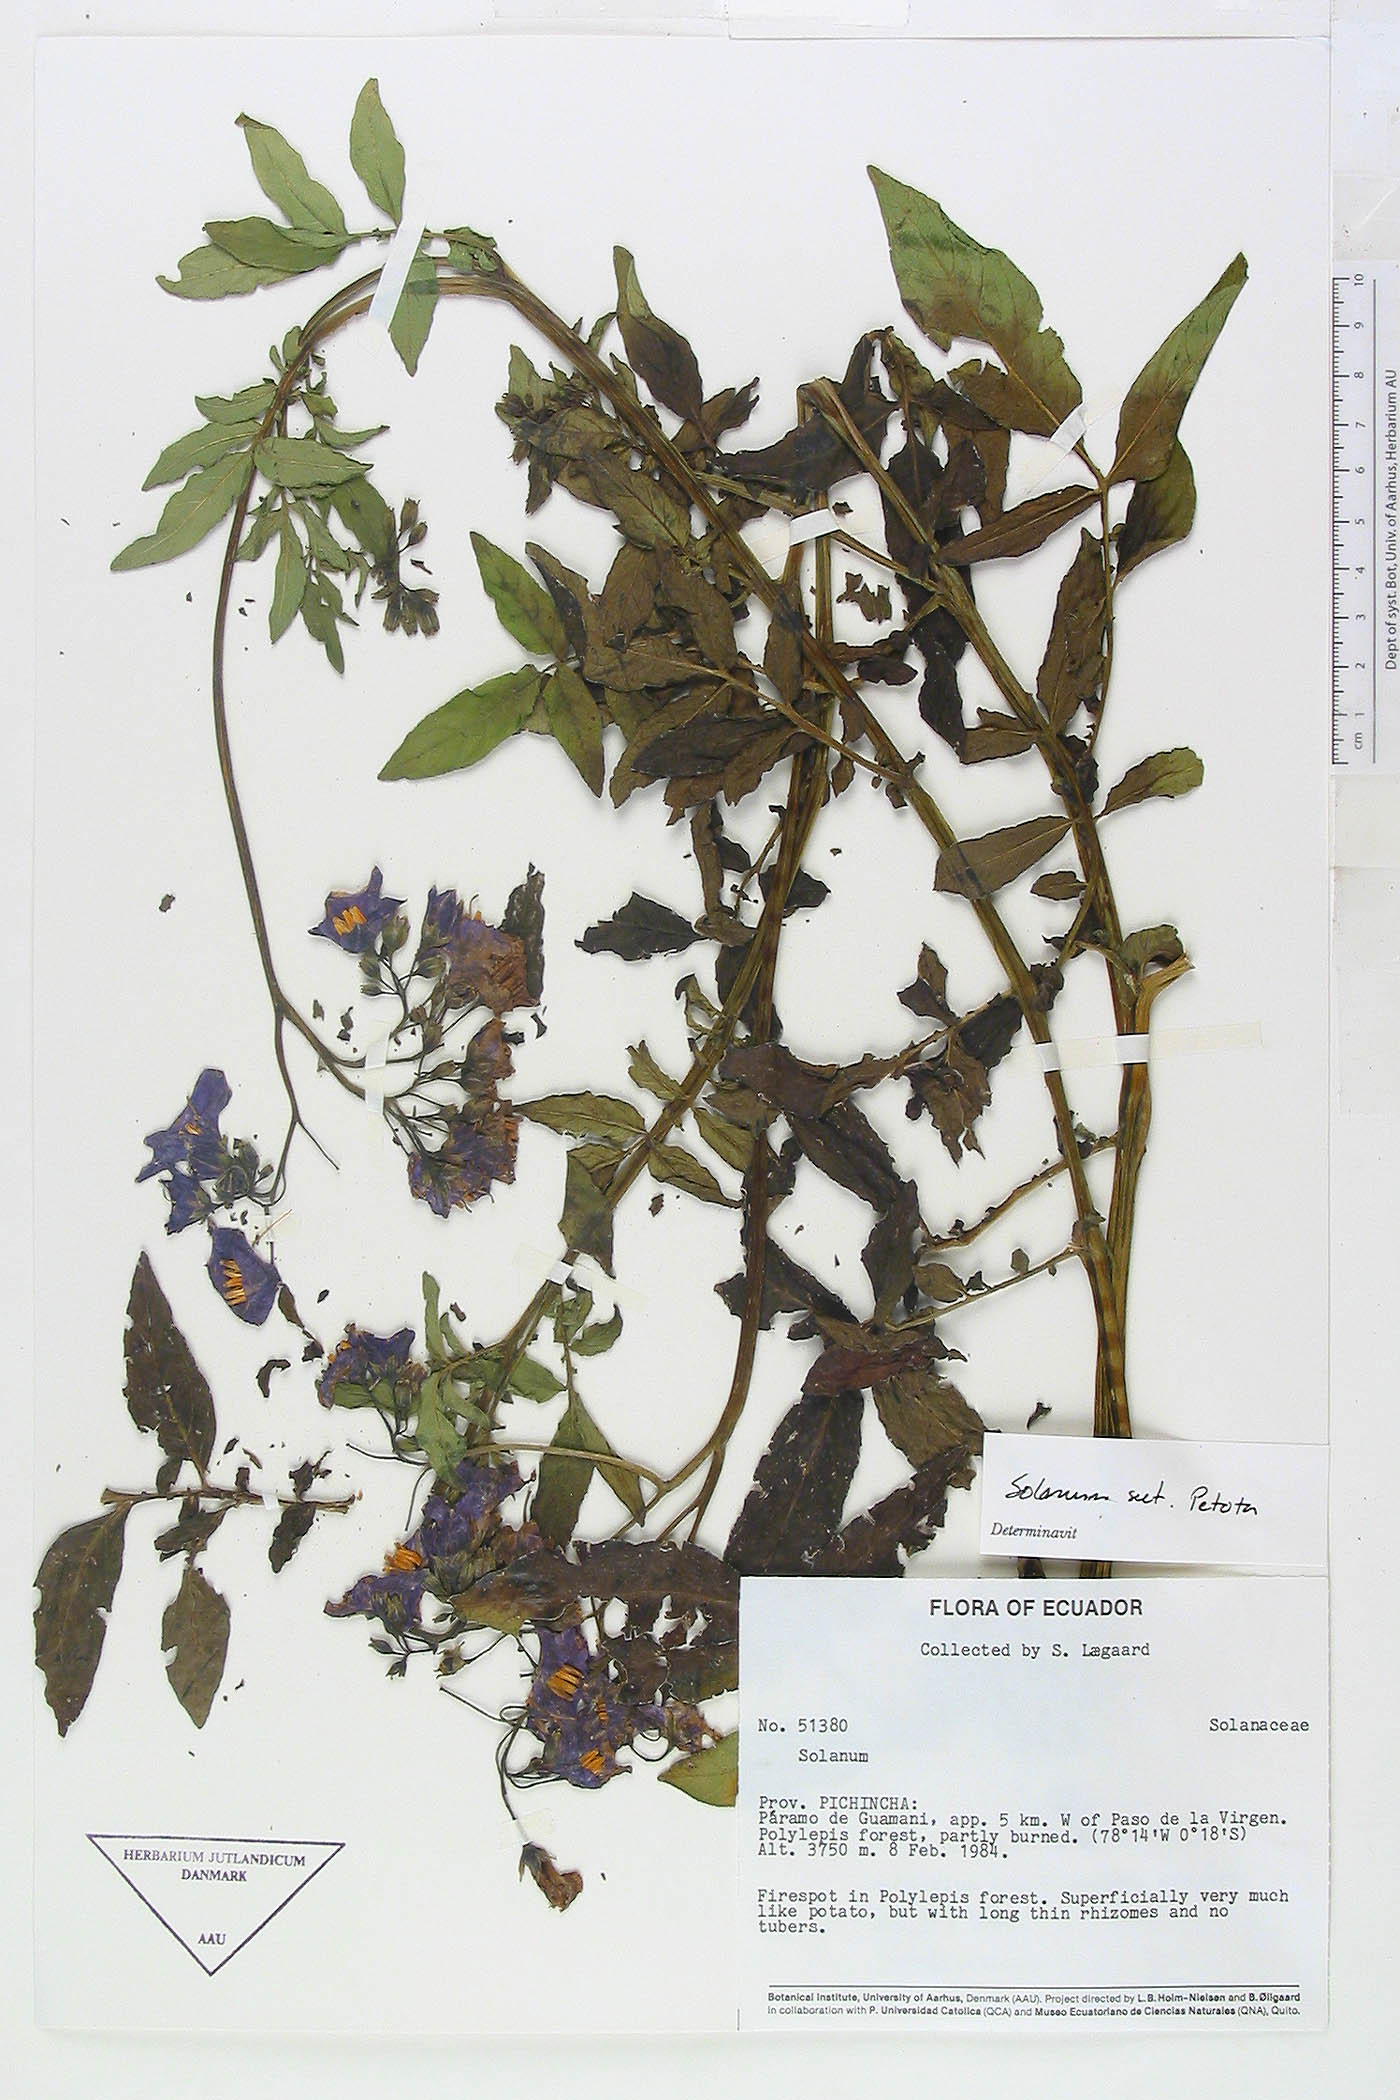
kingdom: Plantae
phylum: Tracheophyta
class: Magnoliopsida
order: Solanales
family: Solanaceae
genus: Solanum
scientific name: Solanum andreanum
